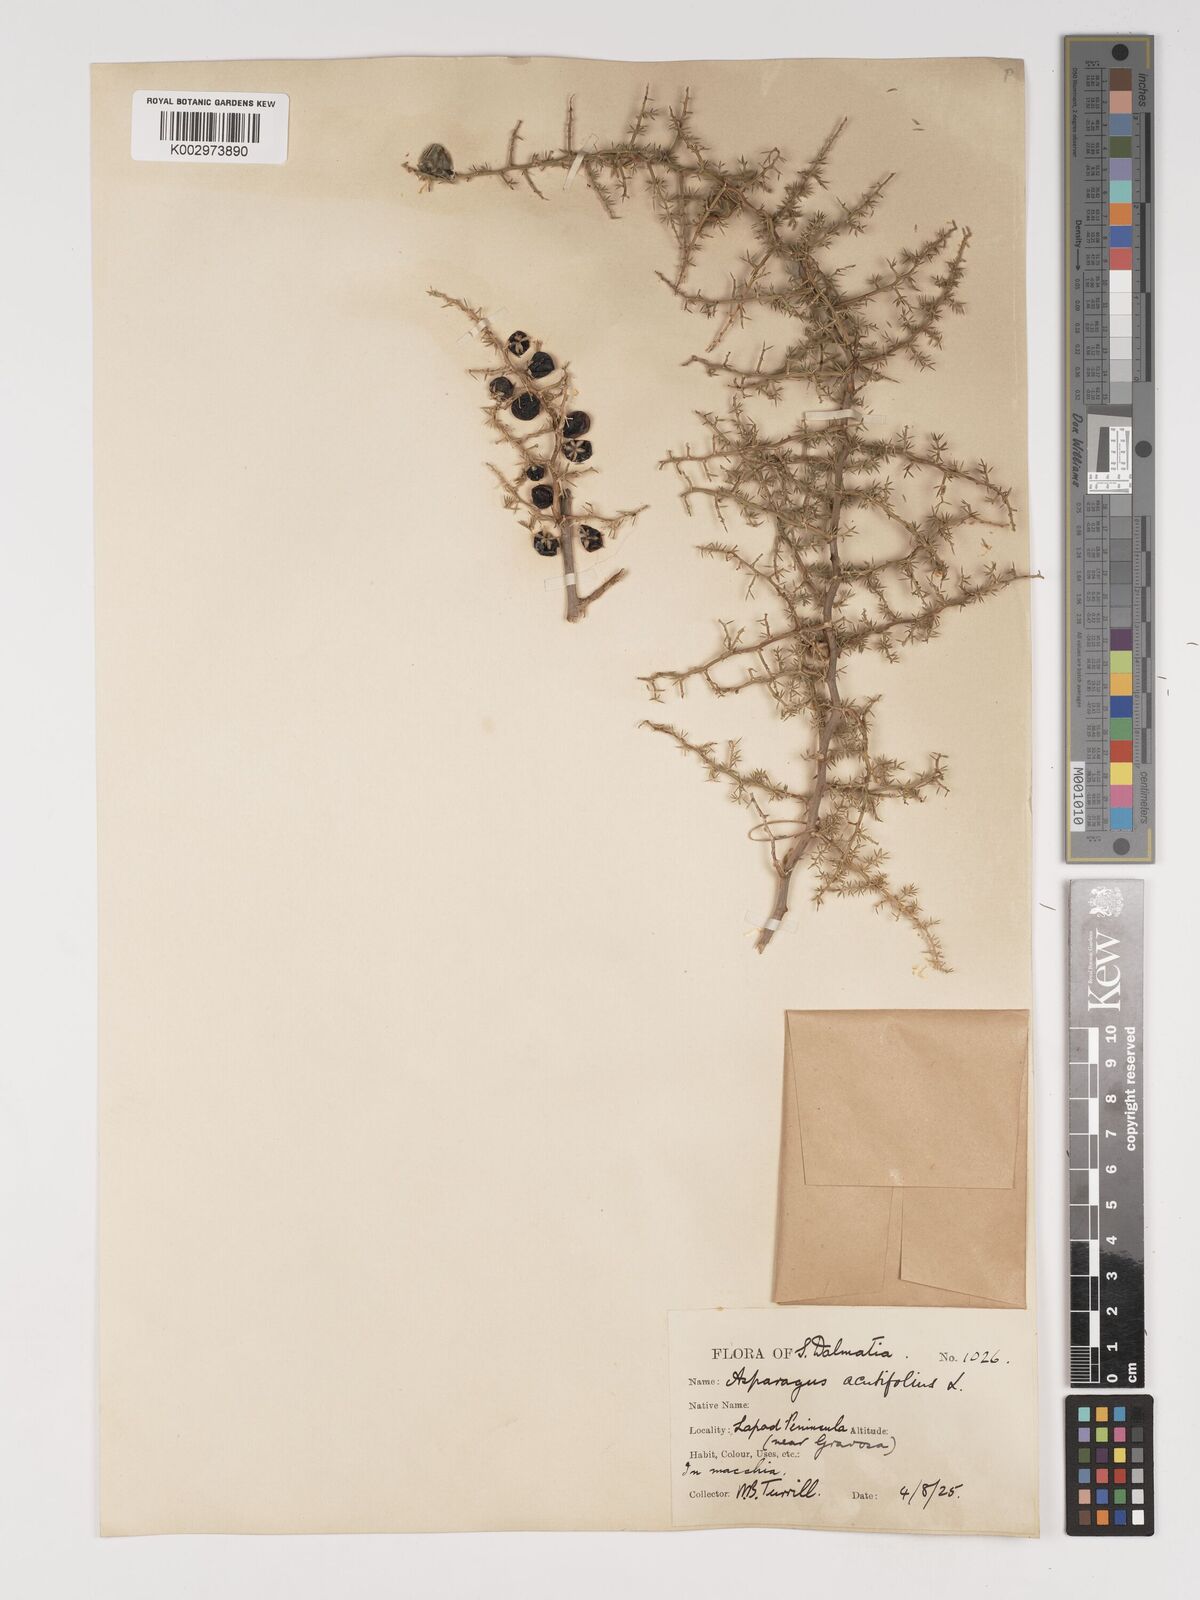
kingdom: Plantae
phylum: Tracheophyta
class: Liliopsida
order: Asparagales
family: Asparagaceae
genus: Asparagus
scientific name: Asparagus aethiopicus
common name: Sprenger's asparagus fern
